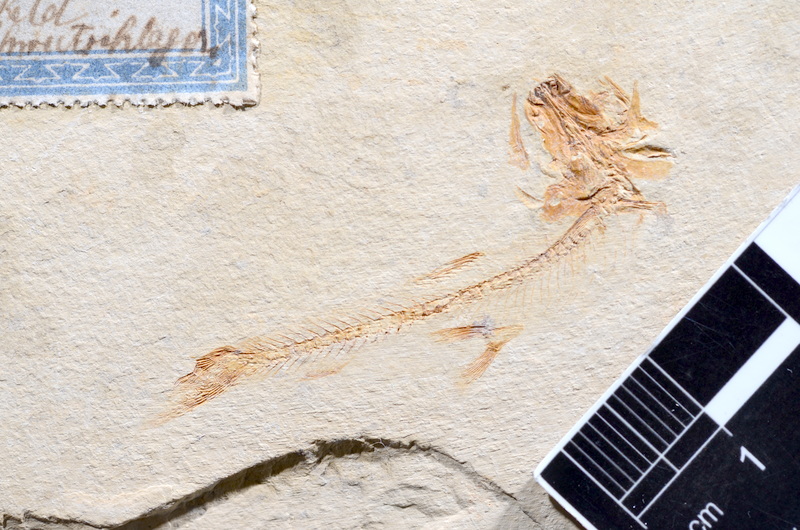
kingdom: Animalia
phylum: Chordata
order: Salmoniformes
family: Orthogonikleithridae
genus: Leptolepides
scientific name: Leptolepides sprattiformis
